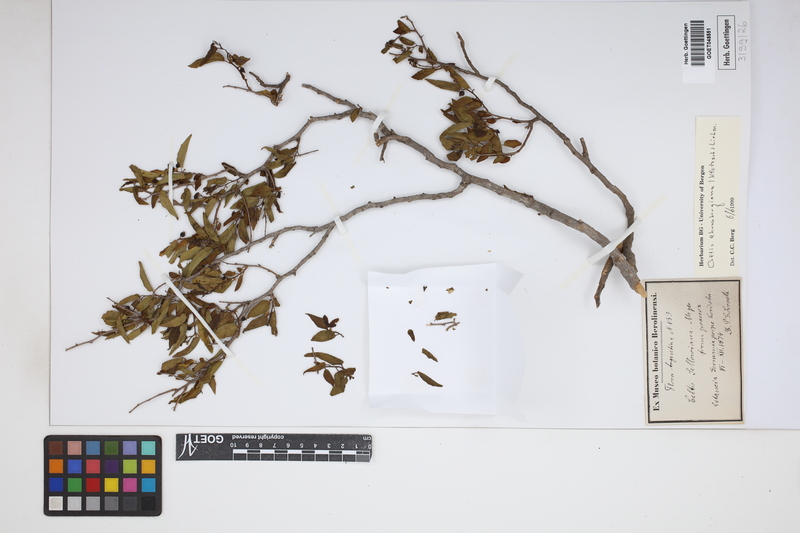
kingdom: Plantae
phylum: Tracheophyta
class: Magnoliopsida
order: Rosales
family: Cannabaceae
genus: Celtis
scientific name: Celtis iguanaea
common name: Iguana hackberry
